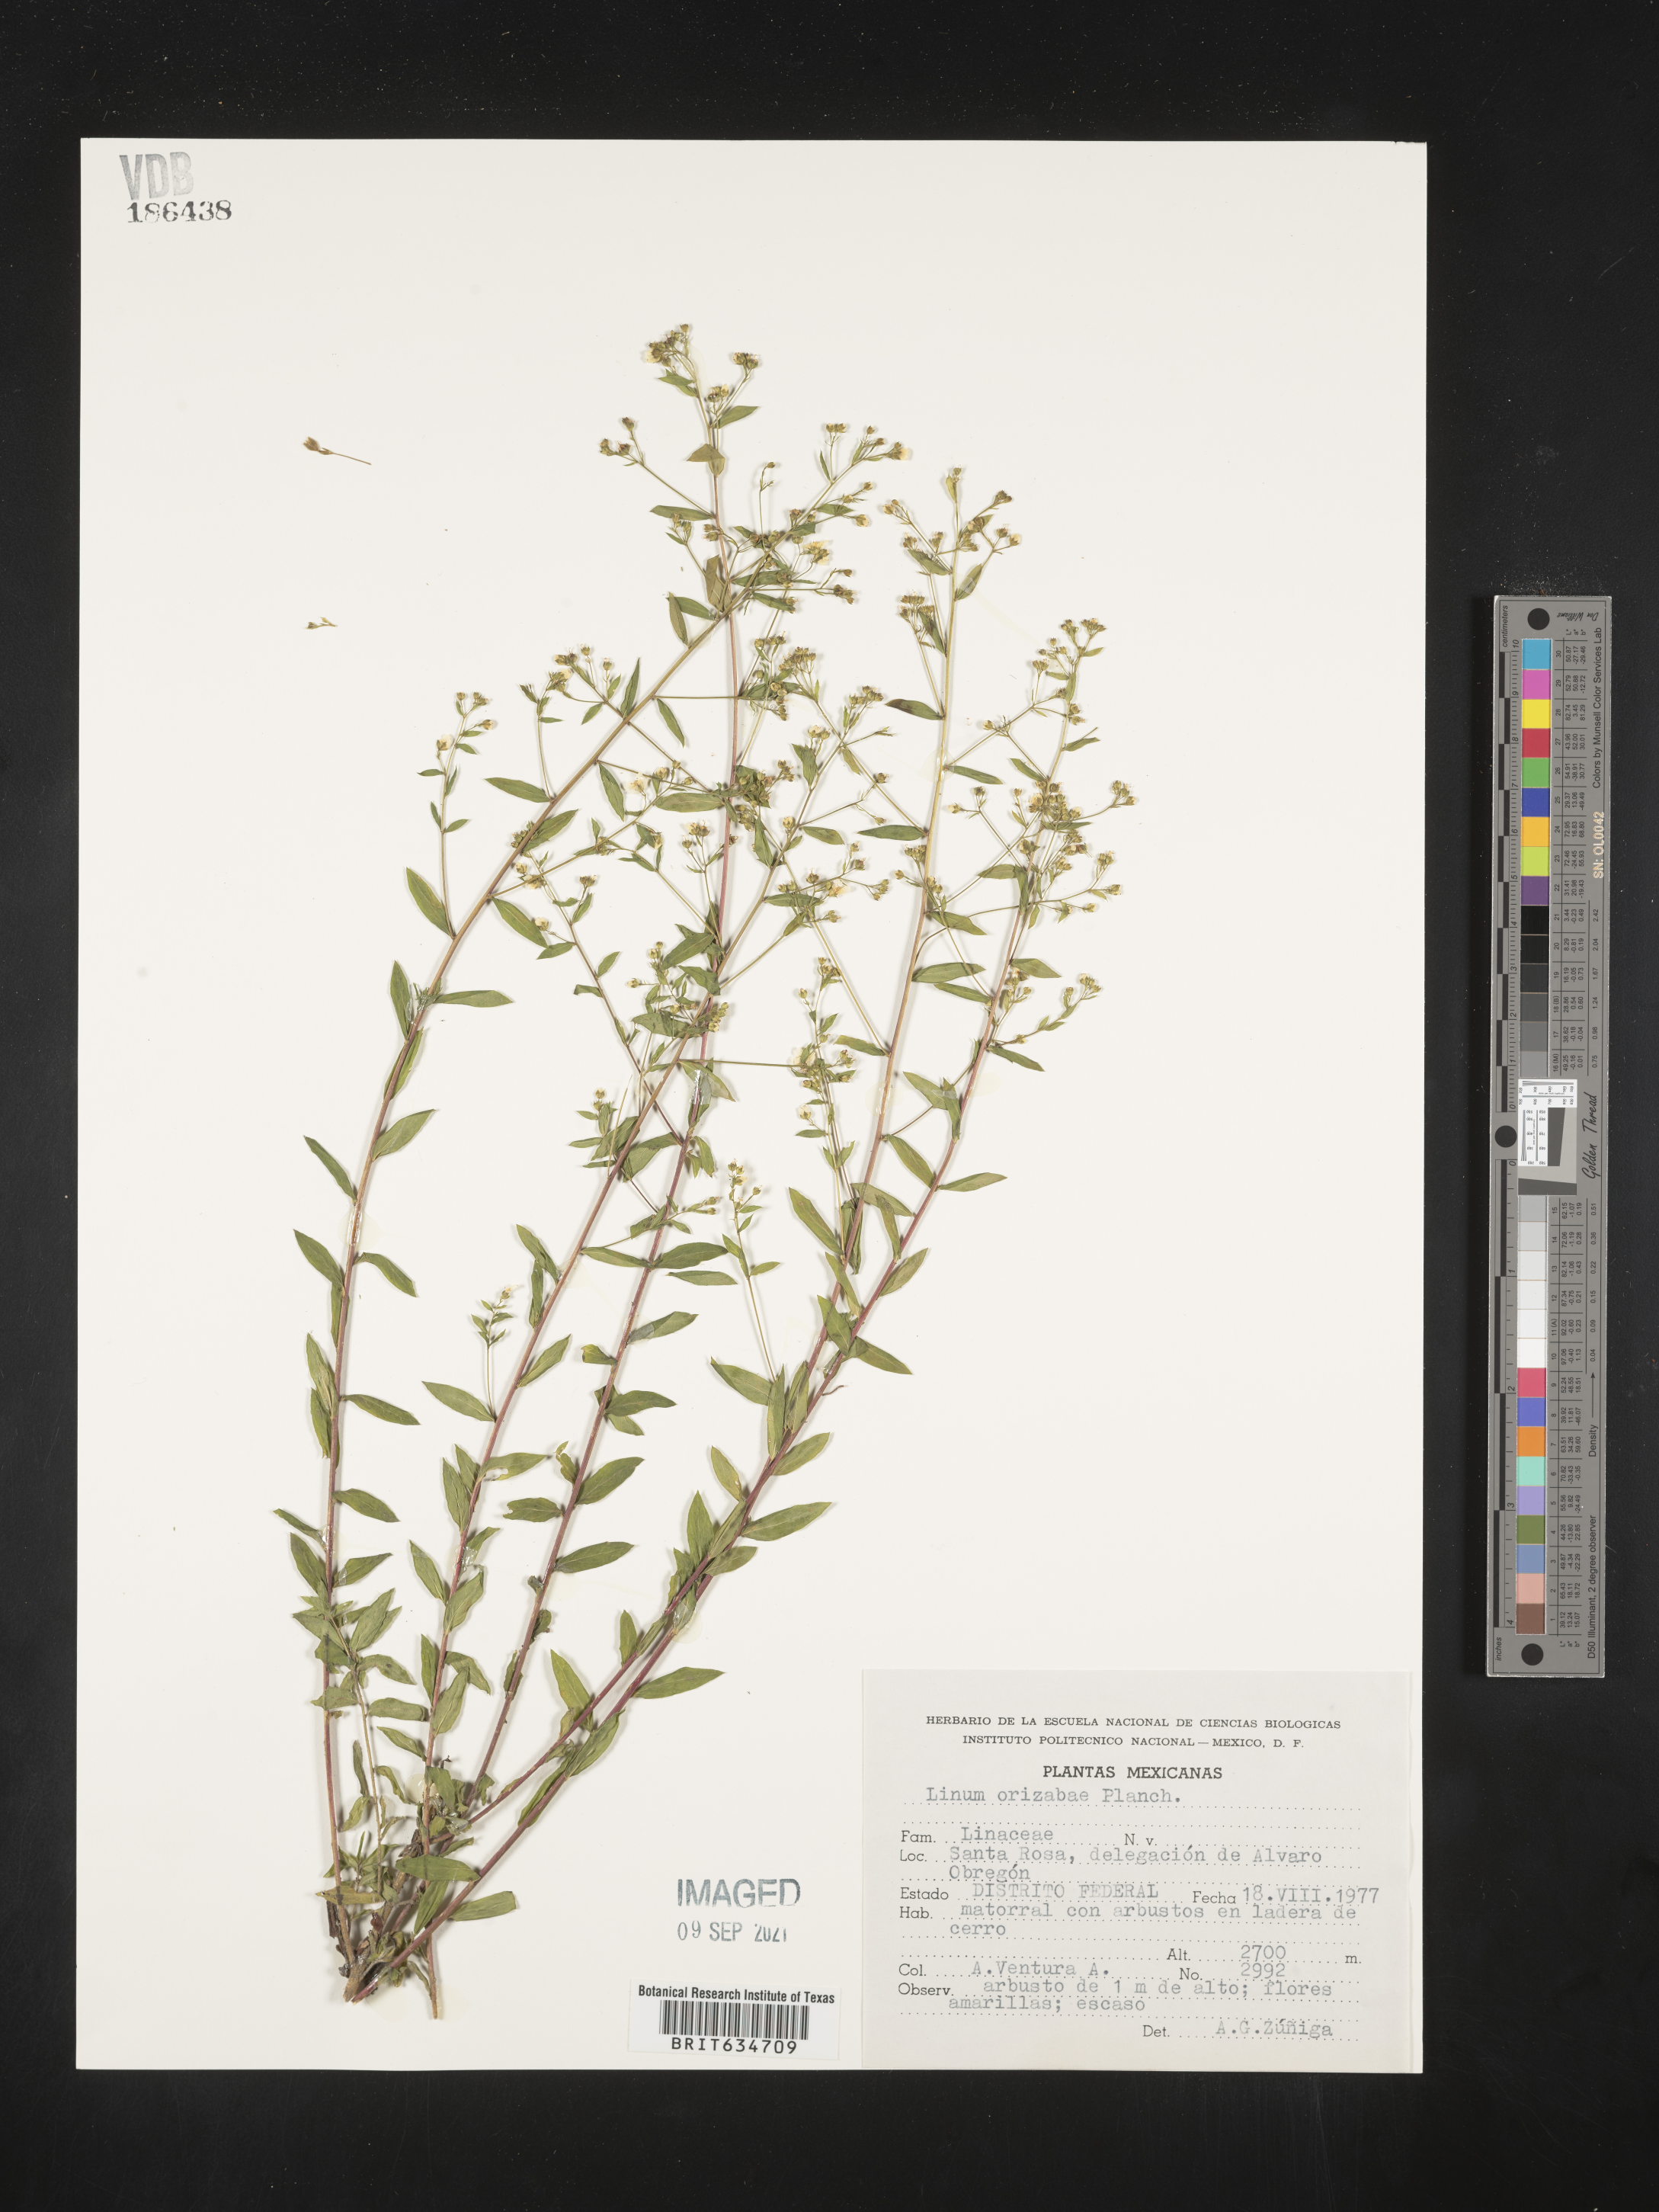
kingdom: Plantae
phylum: Tracheophyta
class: Magnoliopsida
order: Malpighiales
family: Linaceae
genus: Linum
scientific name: Linum
